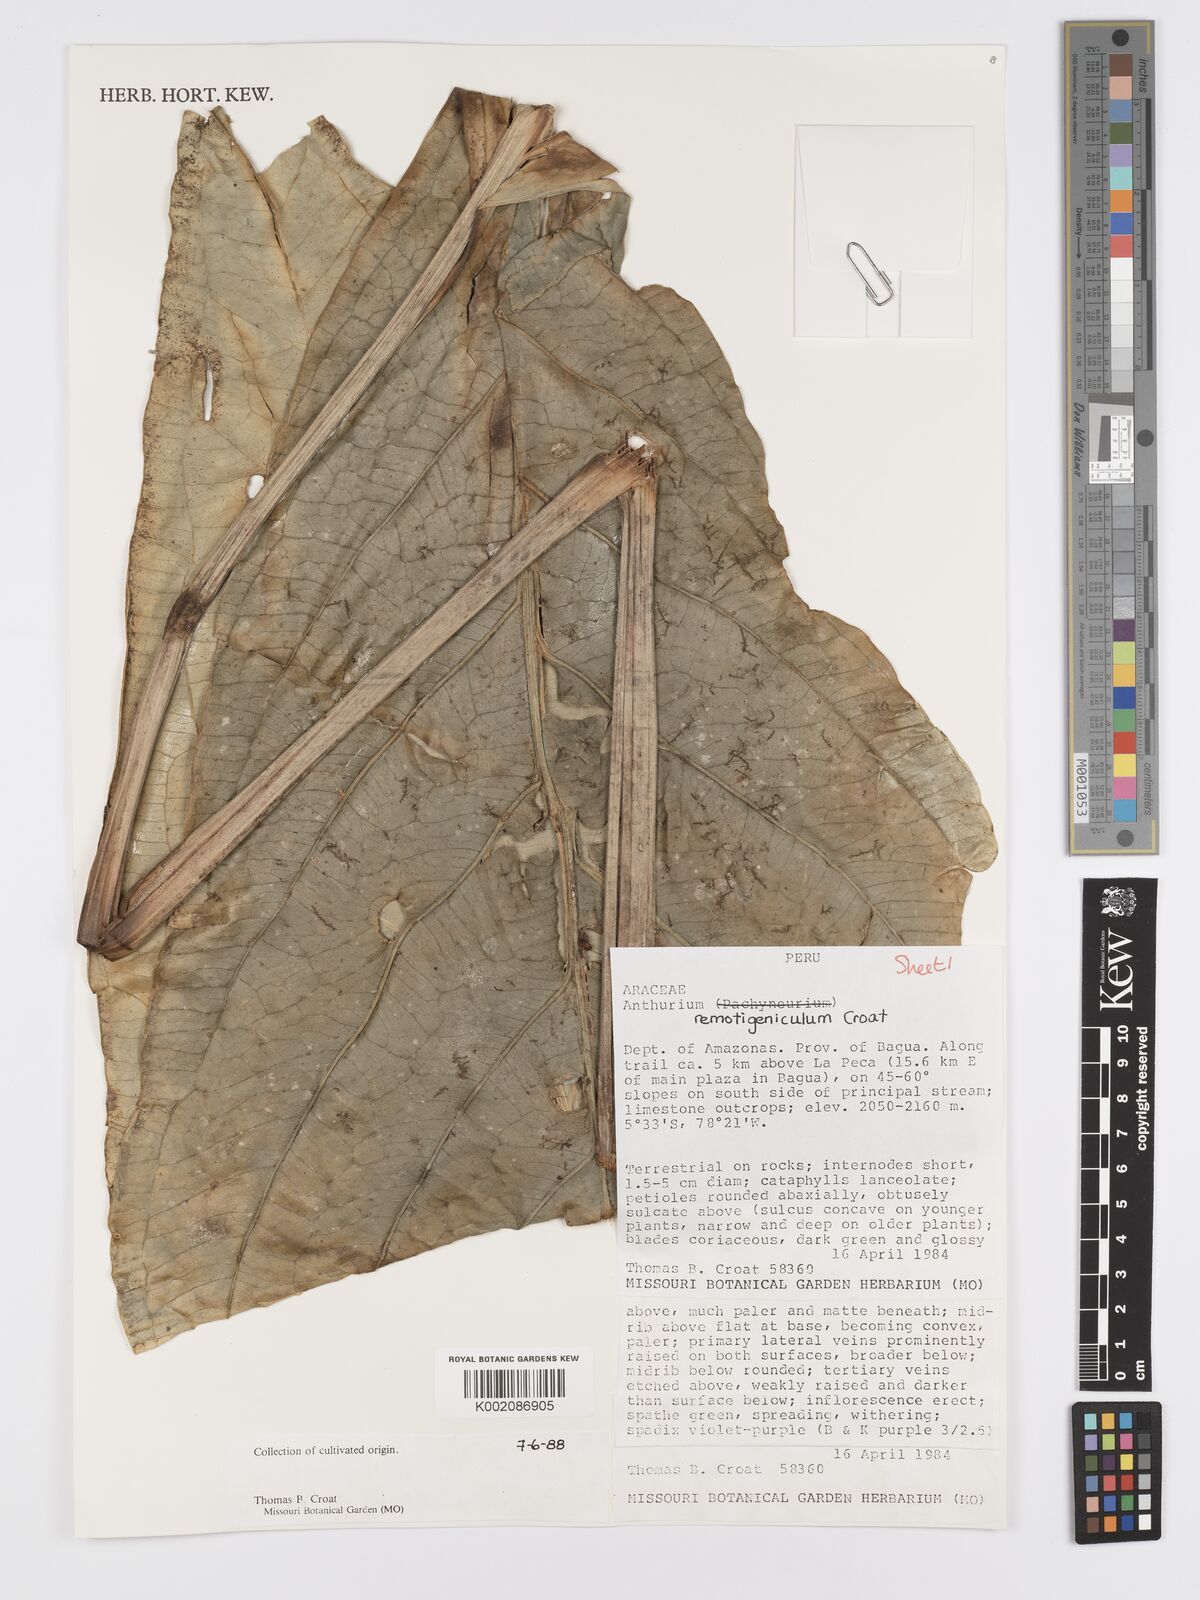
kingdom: Plantae
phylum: Tracheophyta
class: Liliopsida
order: Alismatales
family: Araceae
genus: Anthurium
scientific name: Anthurium remotigeniculatum
